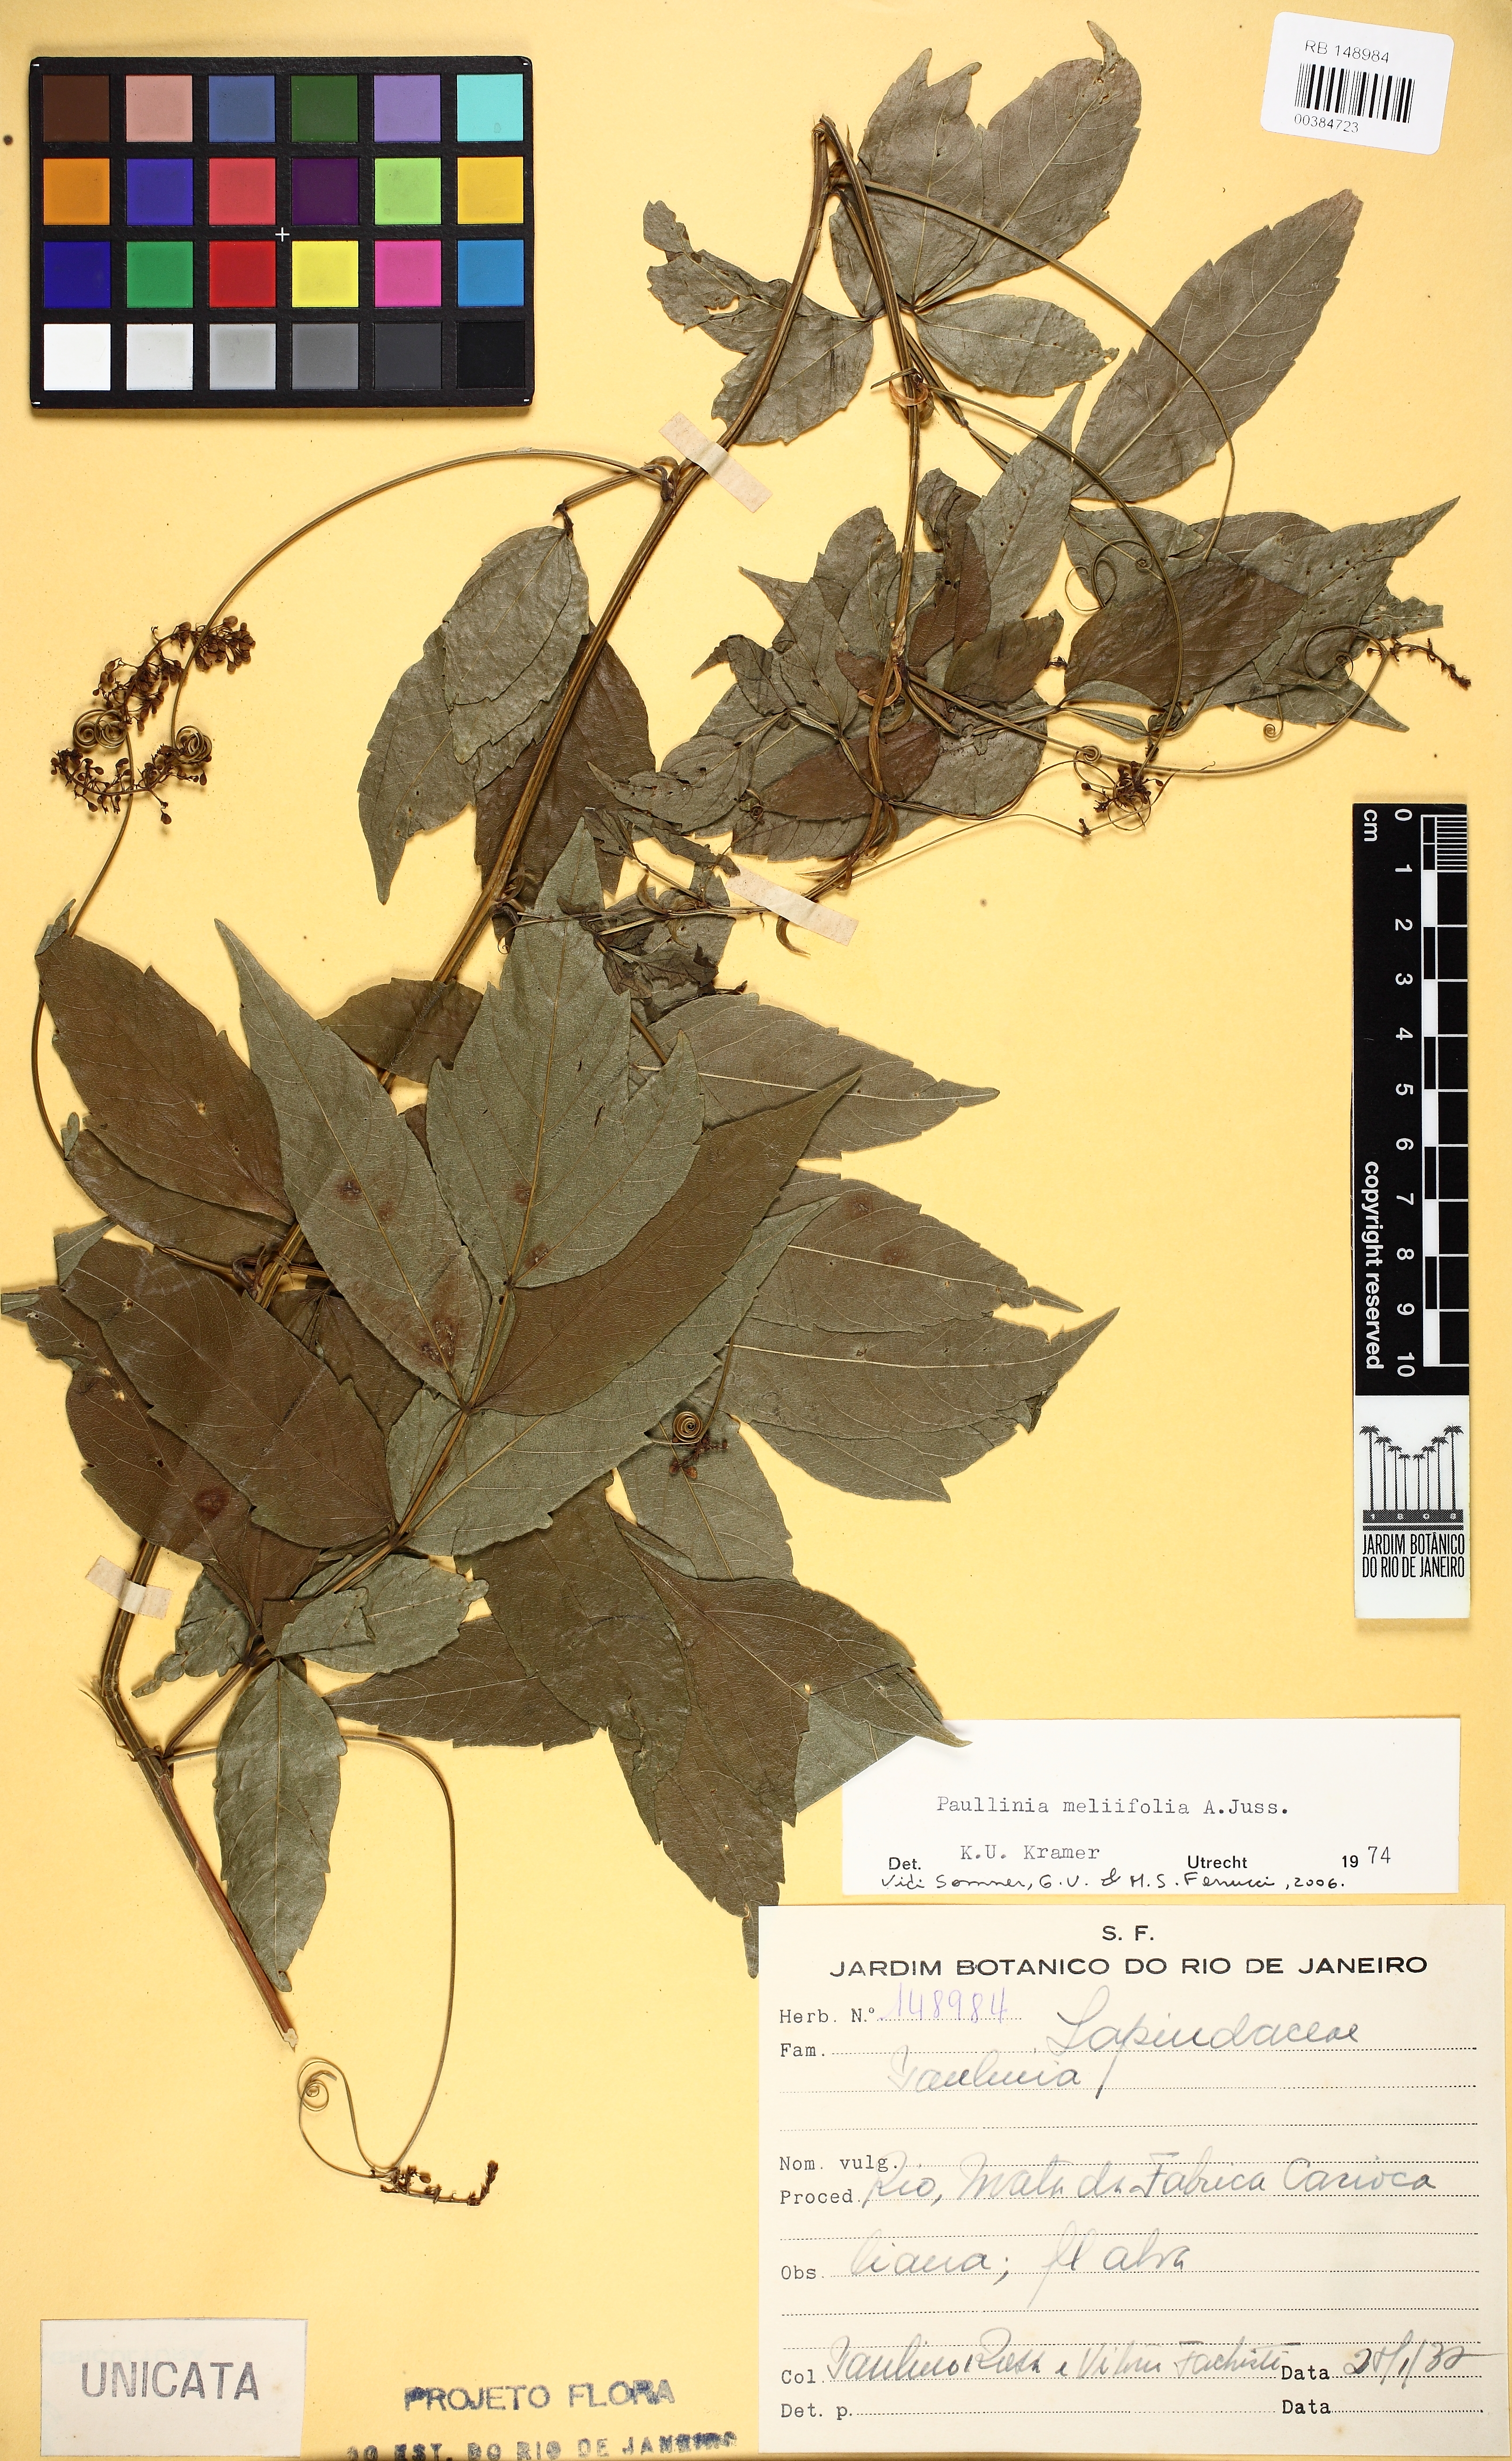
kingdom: Plantae
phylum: Tracheophyta
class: Magnoliopsida
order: Sapindales
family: Sapindaceae
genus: Paullinia
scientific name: Paullinia meliifolia
